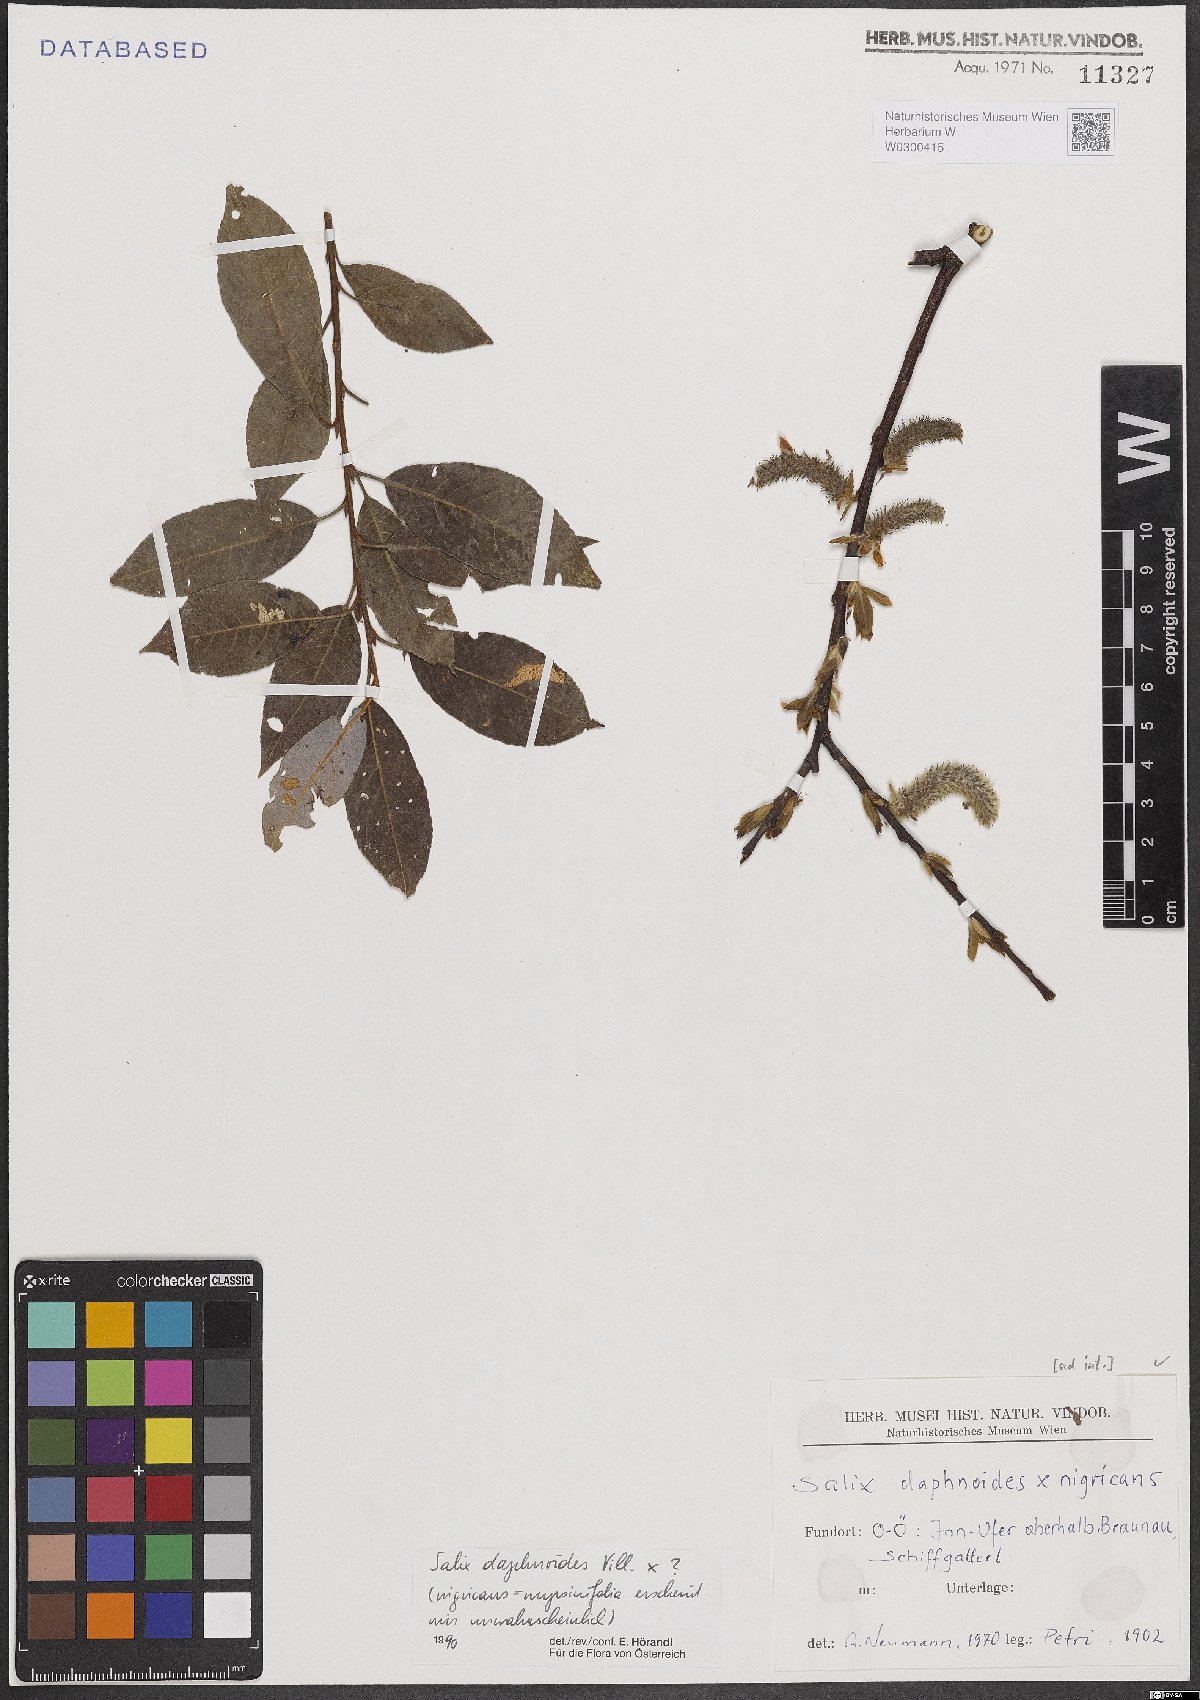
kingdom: Plantae
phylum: Tracheophyta
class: Magnoliopsida
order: Malpighiales
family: Salicaceae
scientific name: Salicaceae
